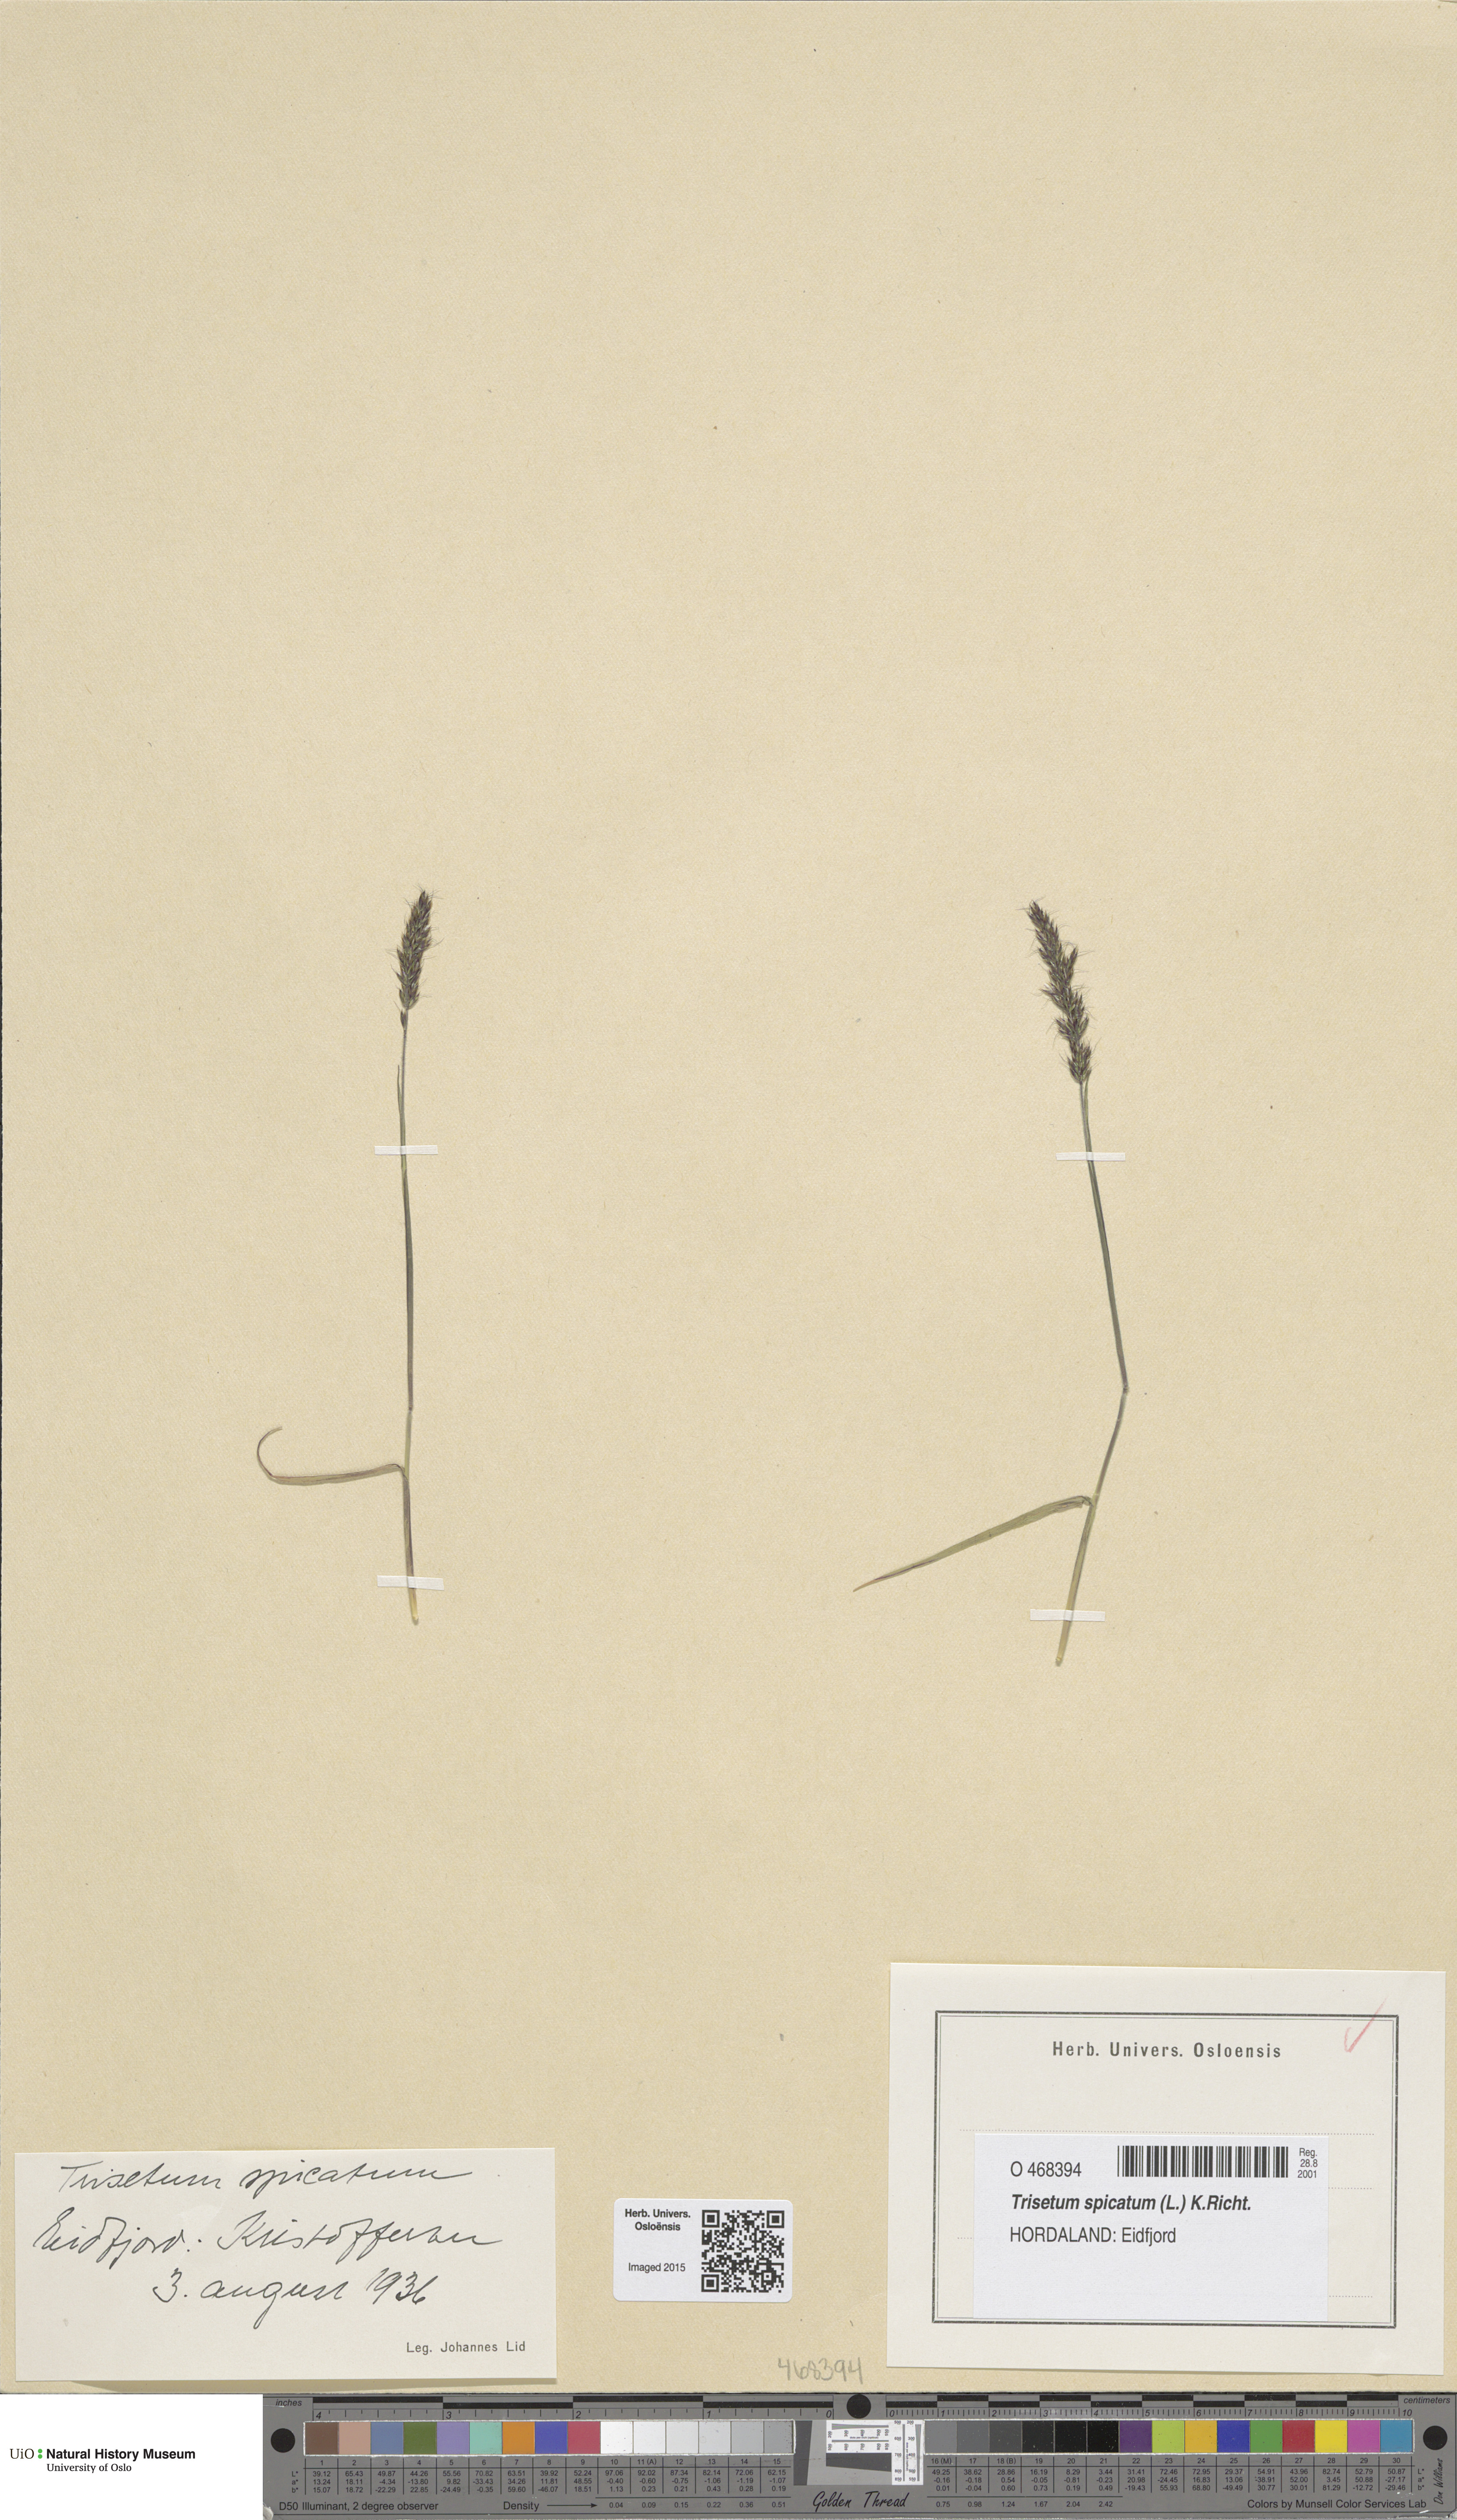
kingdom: Plantae
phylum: Tracheophyta
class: Liliopsida
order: Poales
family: Poaceae
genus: Koeleria
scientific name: Koeleria spicata
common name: Mountain trisetum
